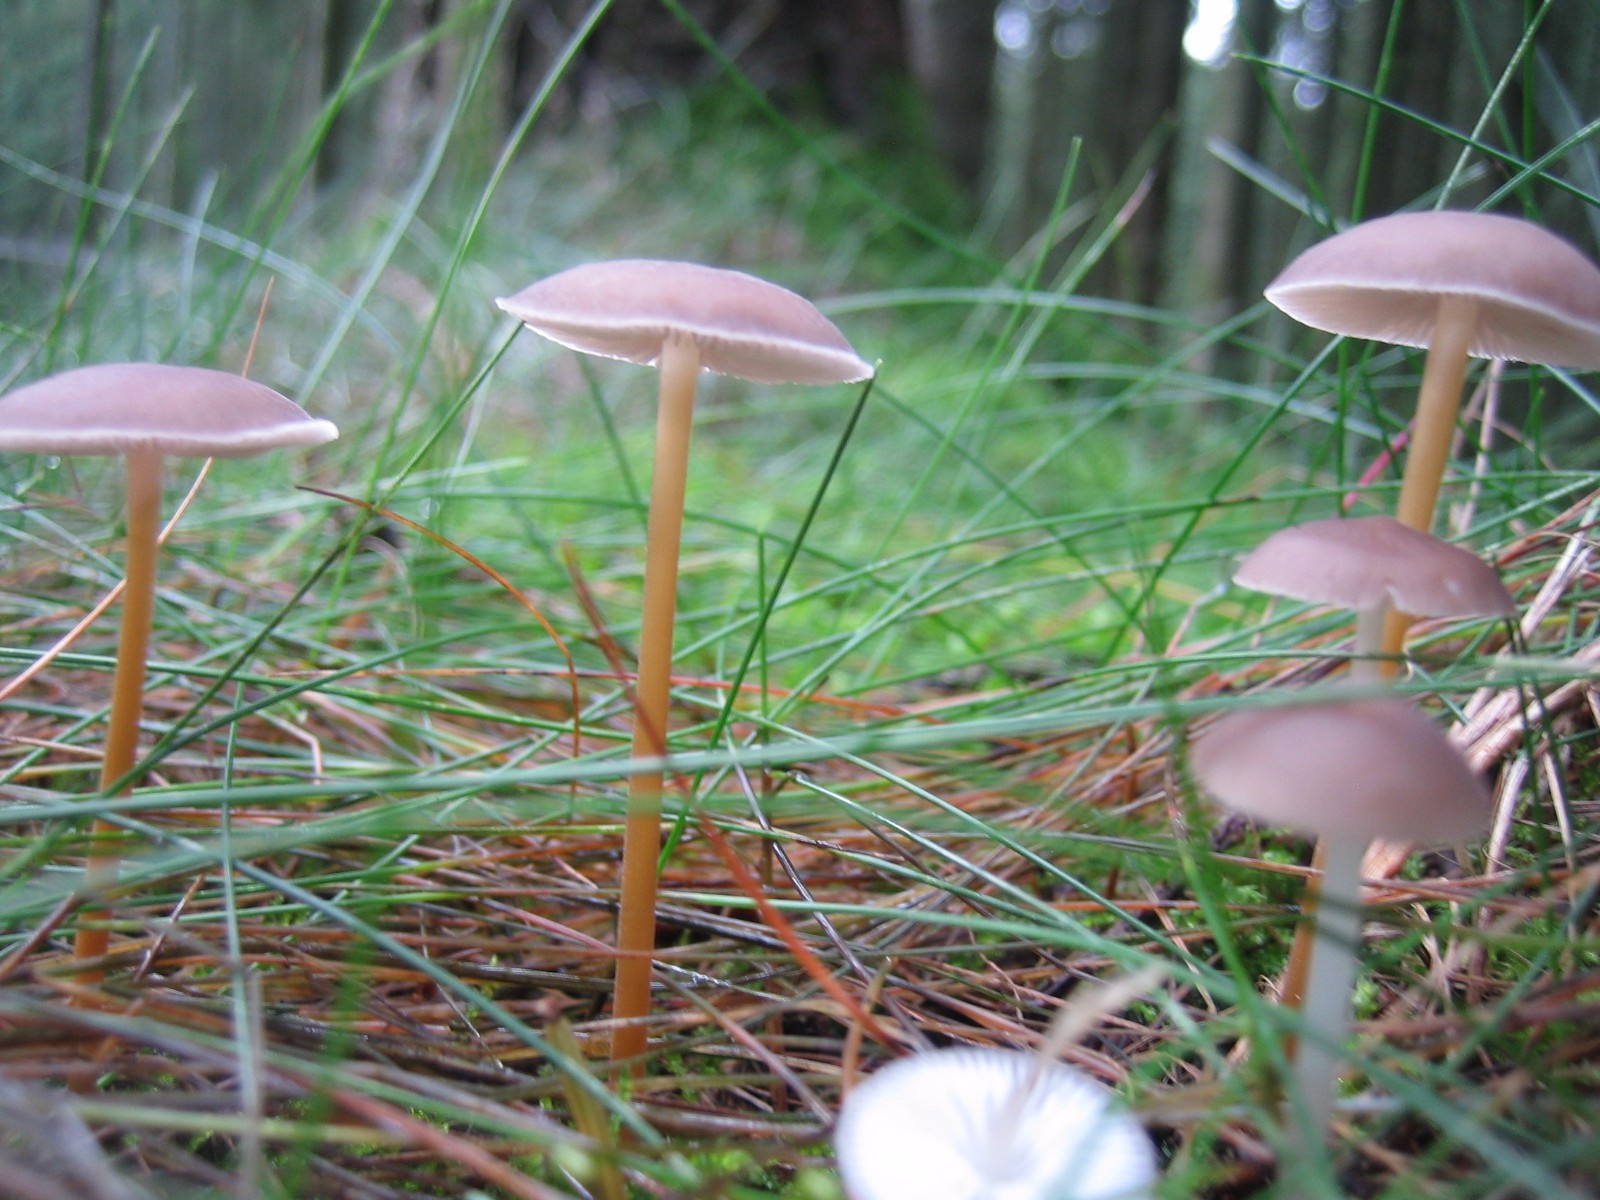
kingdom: Fungi
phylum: Basidiomycota
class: Agaricomycetes
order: Agaricales
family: Physalacriaceae
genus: Strobilurus
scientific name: Strobilurus esculentus
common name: gran-koglehat
